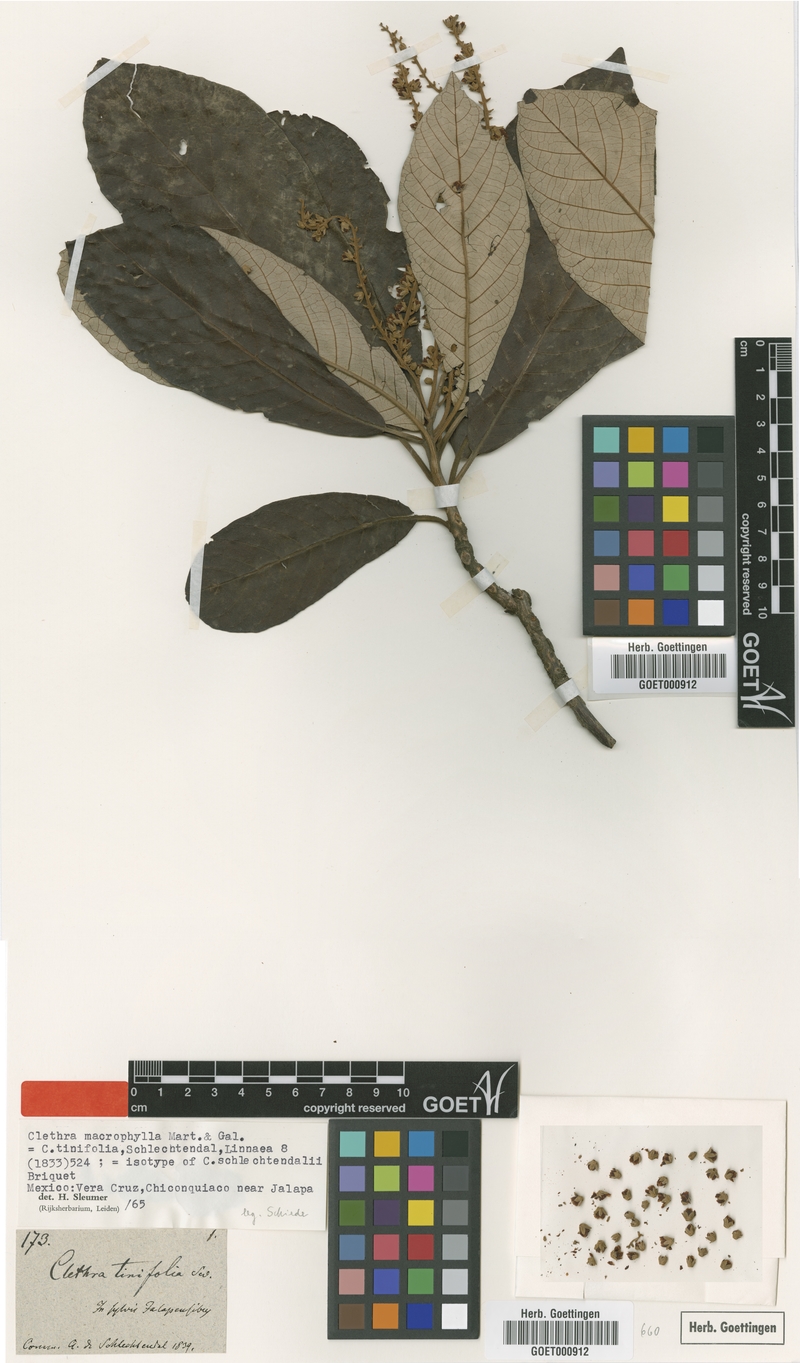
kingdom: Plantae
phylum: Tracheophyta
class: Magnoliopsida
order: Ericales
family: Clethraceae
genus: Clethra
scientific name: Clethra macrophylla
